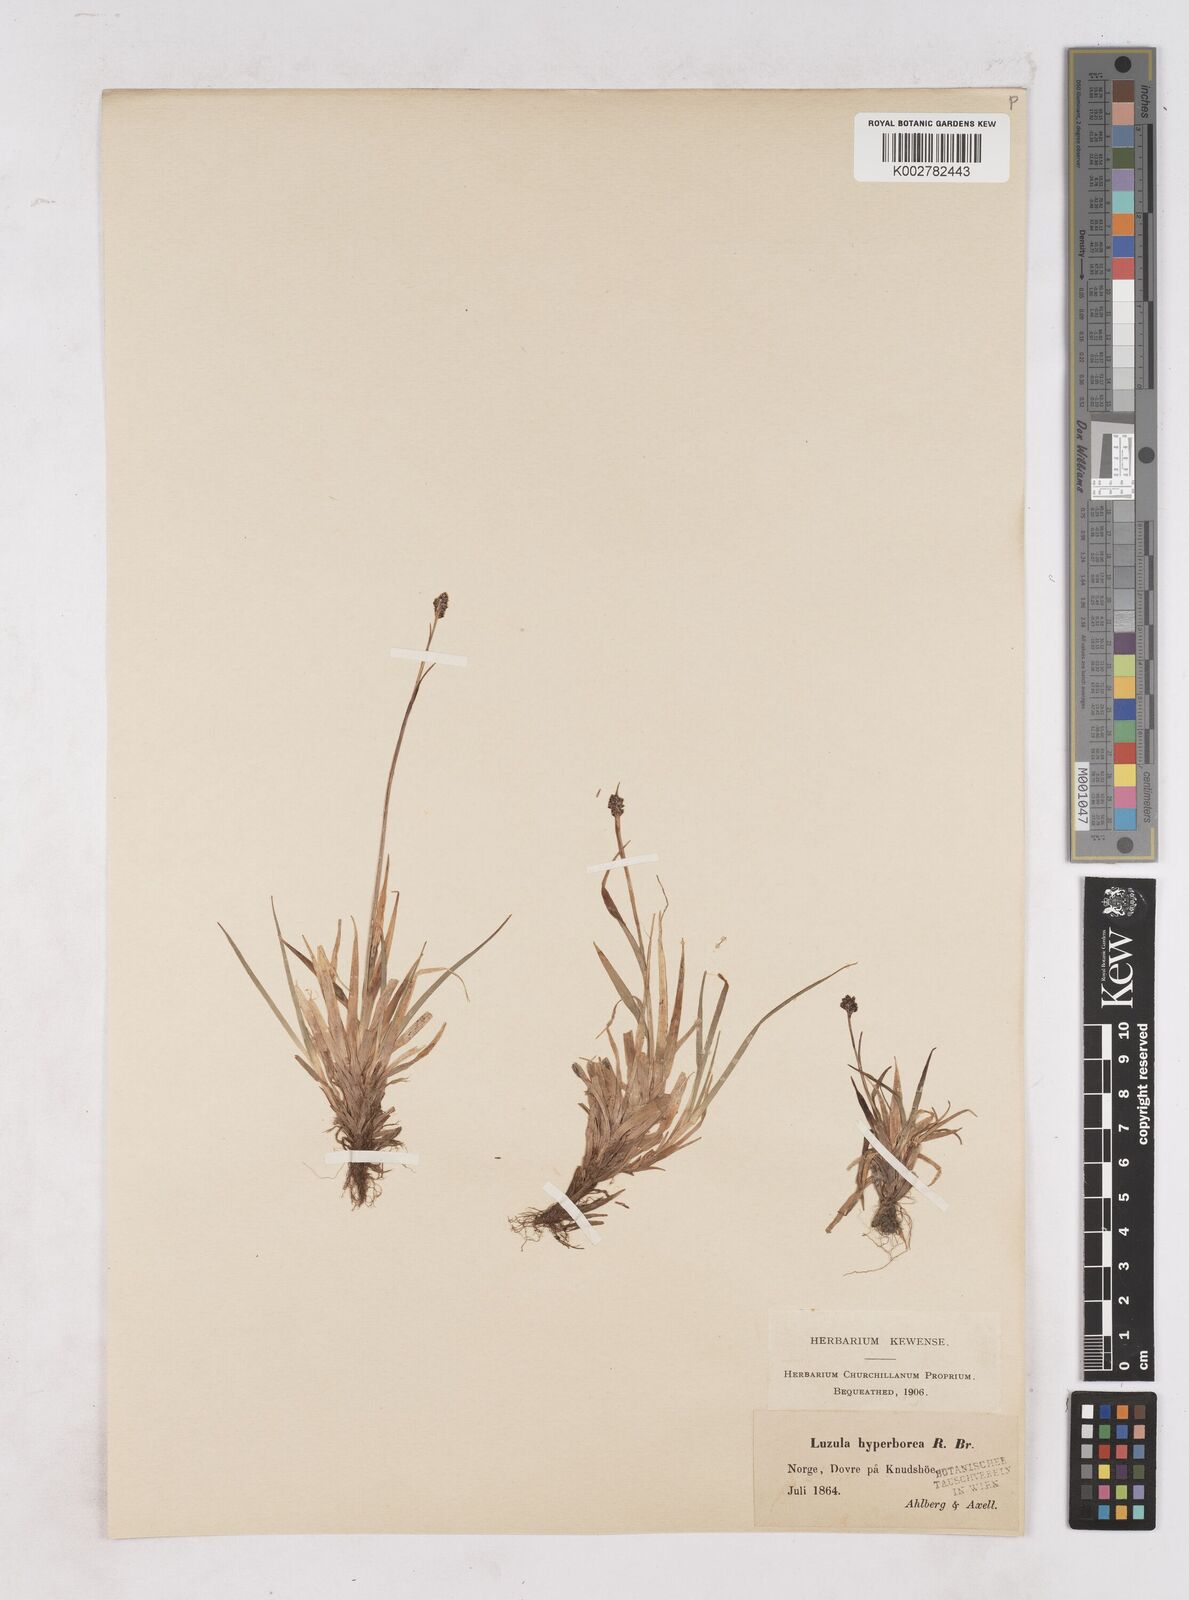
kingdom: Plantae
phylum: Tracheophyta
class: Liliopsida
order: Poales
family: Juncaceae
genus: Luzula
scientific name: Luzula nivalis
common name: Arctic woodrush
